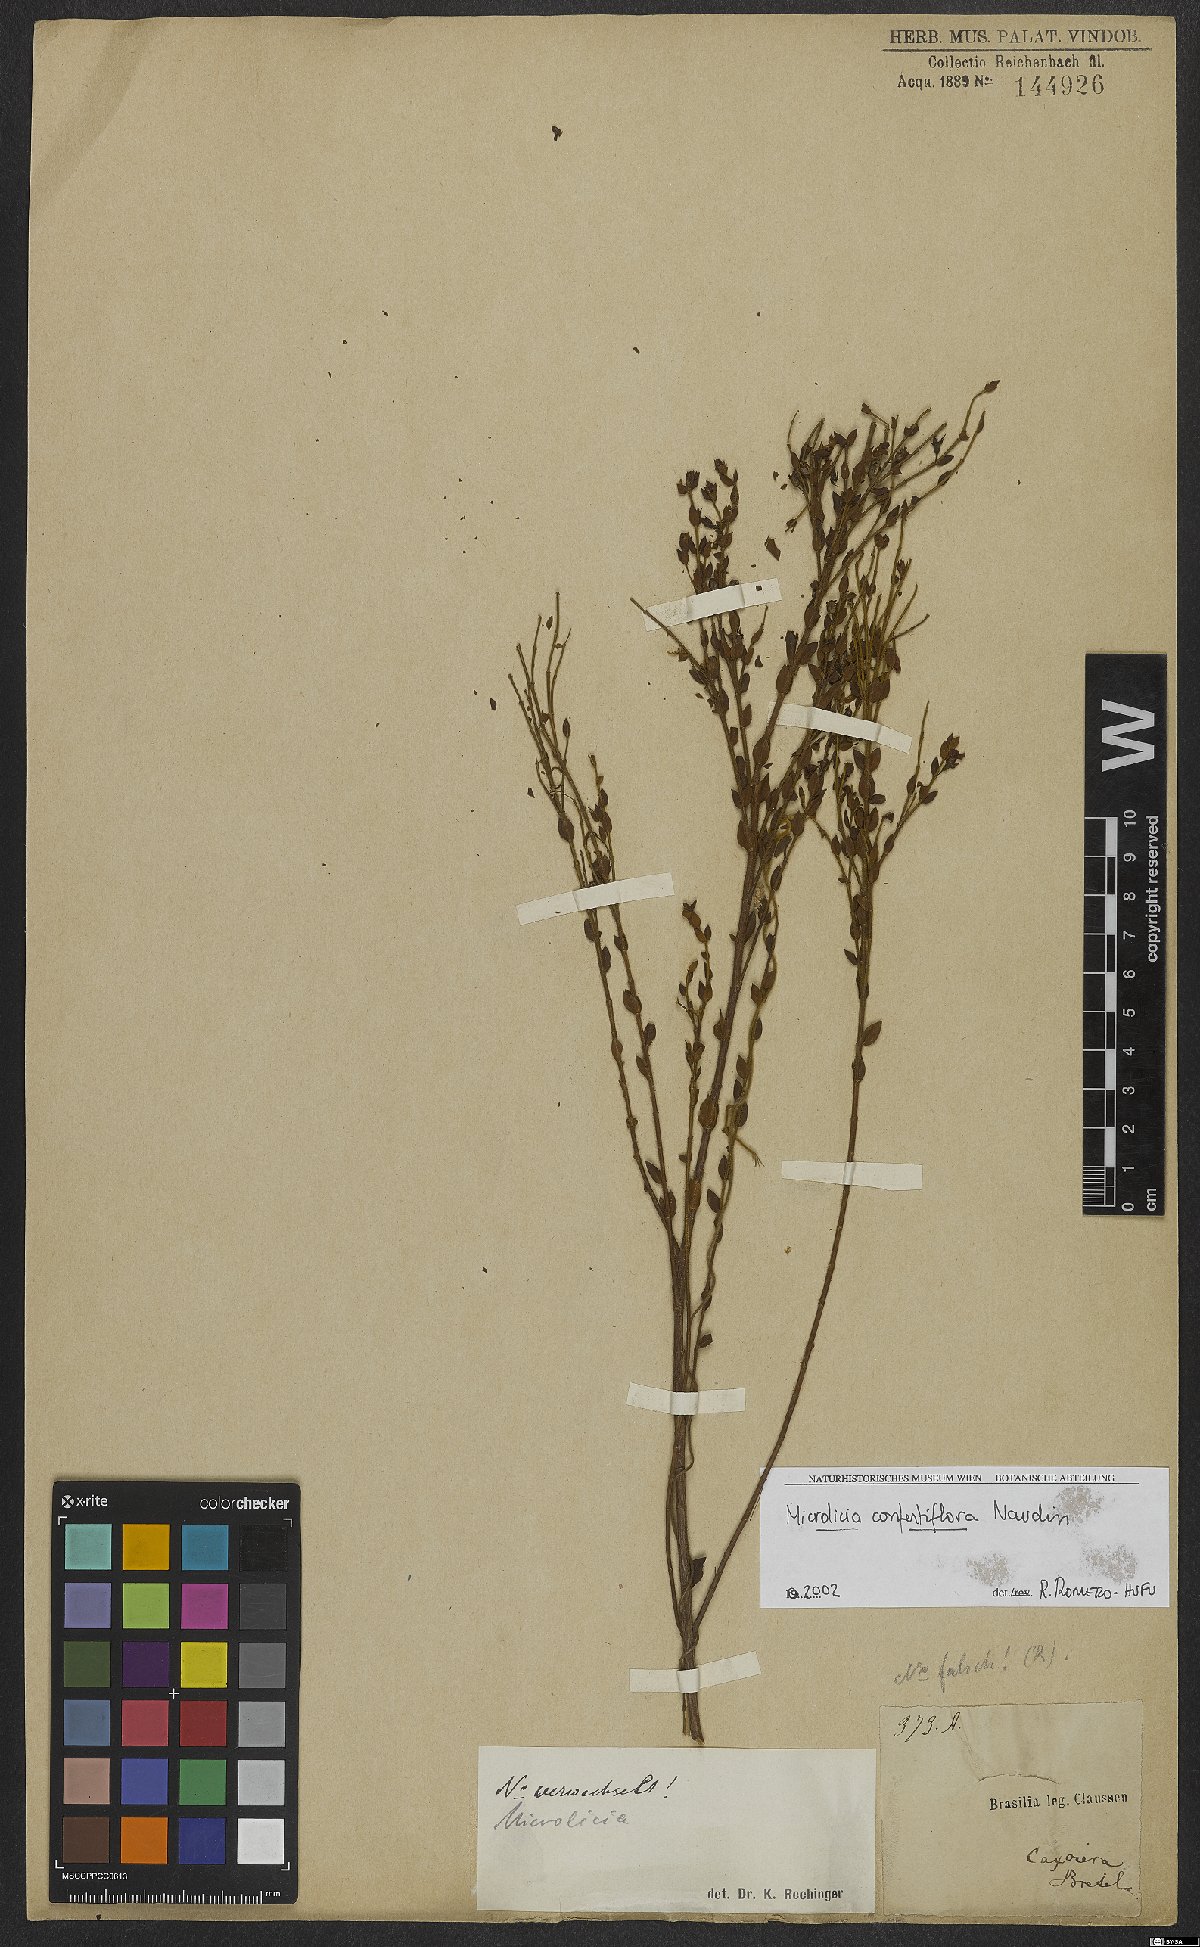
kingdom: Plantae
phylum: Tracheophyta
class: Magnoliopsida
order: Myrtales
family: Melastomataceae
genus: Microlicia
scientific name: Microlicia confertiflora
